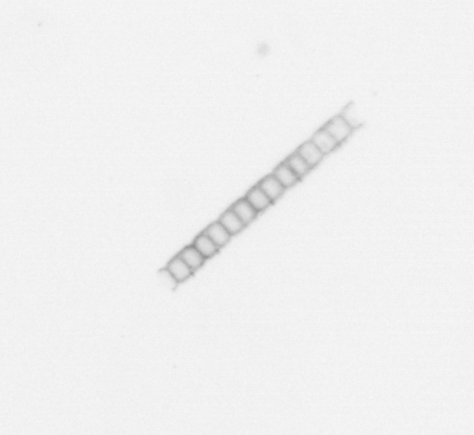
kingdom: Chromista
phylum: Ochrophyta
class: Bacillariophyceae
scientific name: Bacillariophyceae
